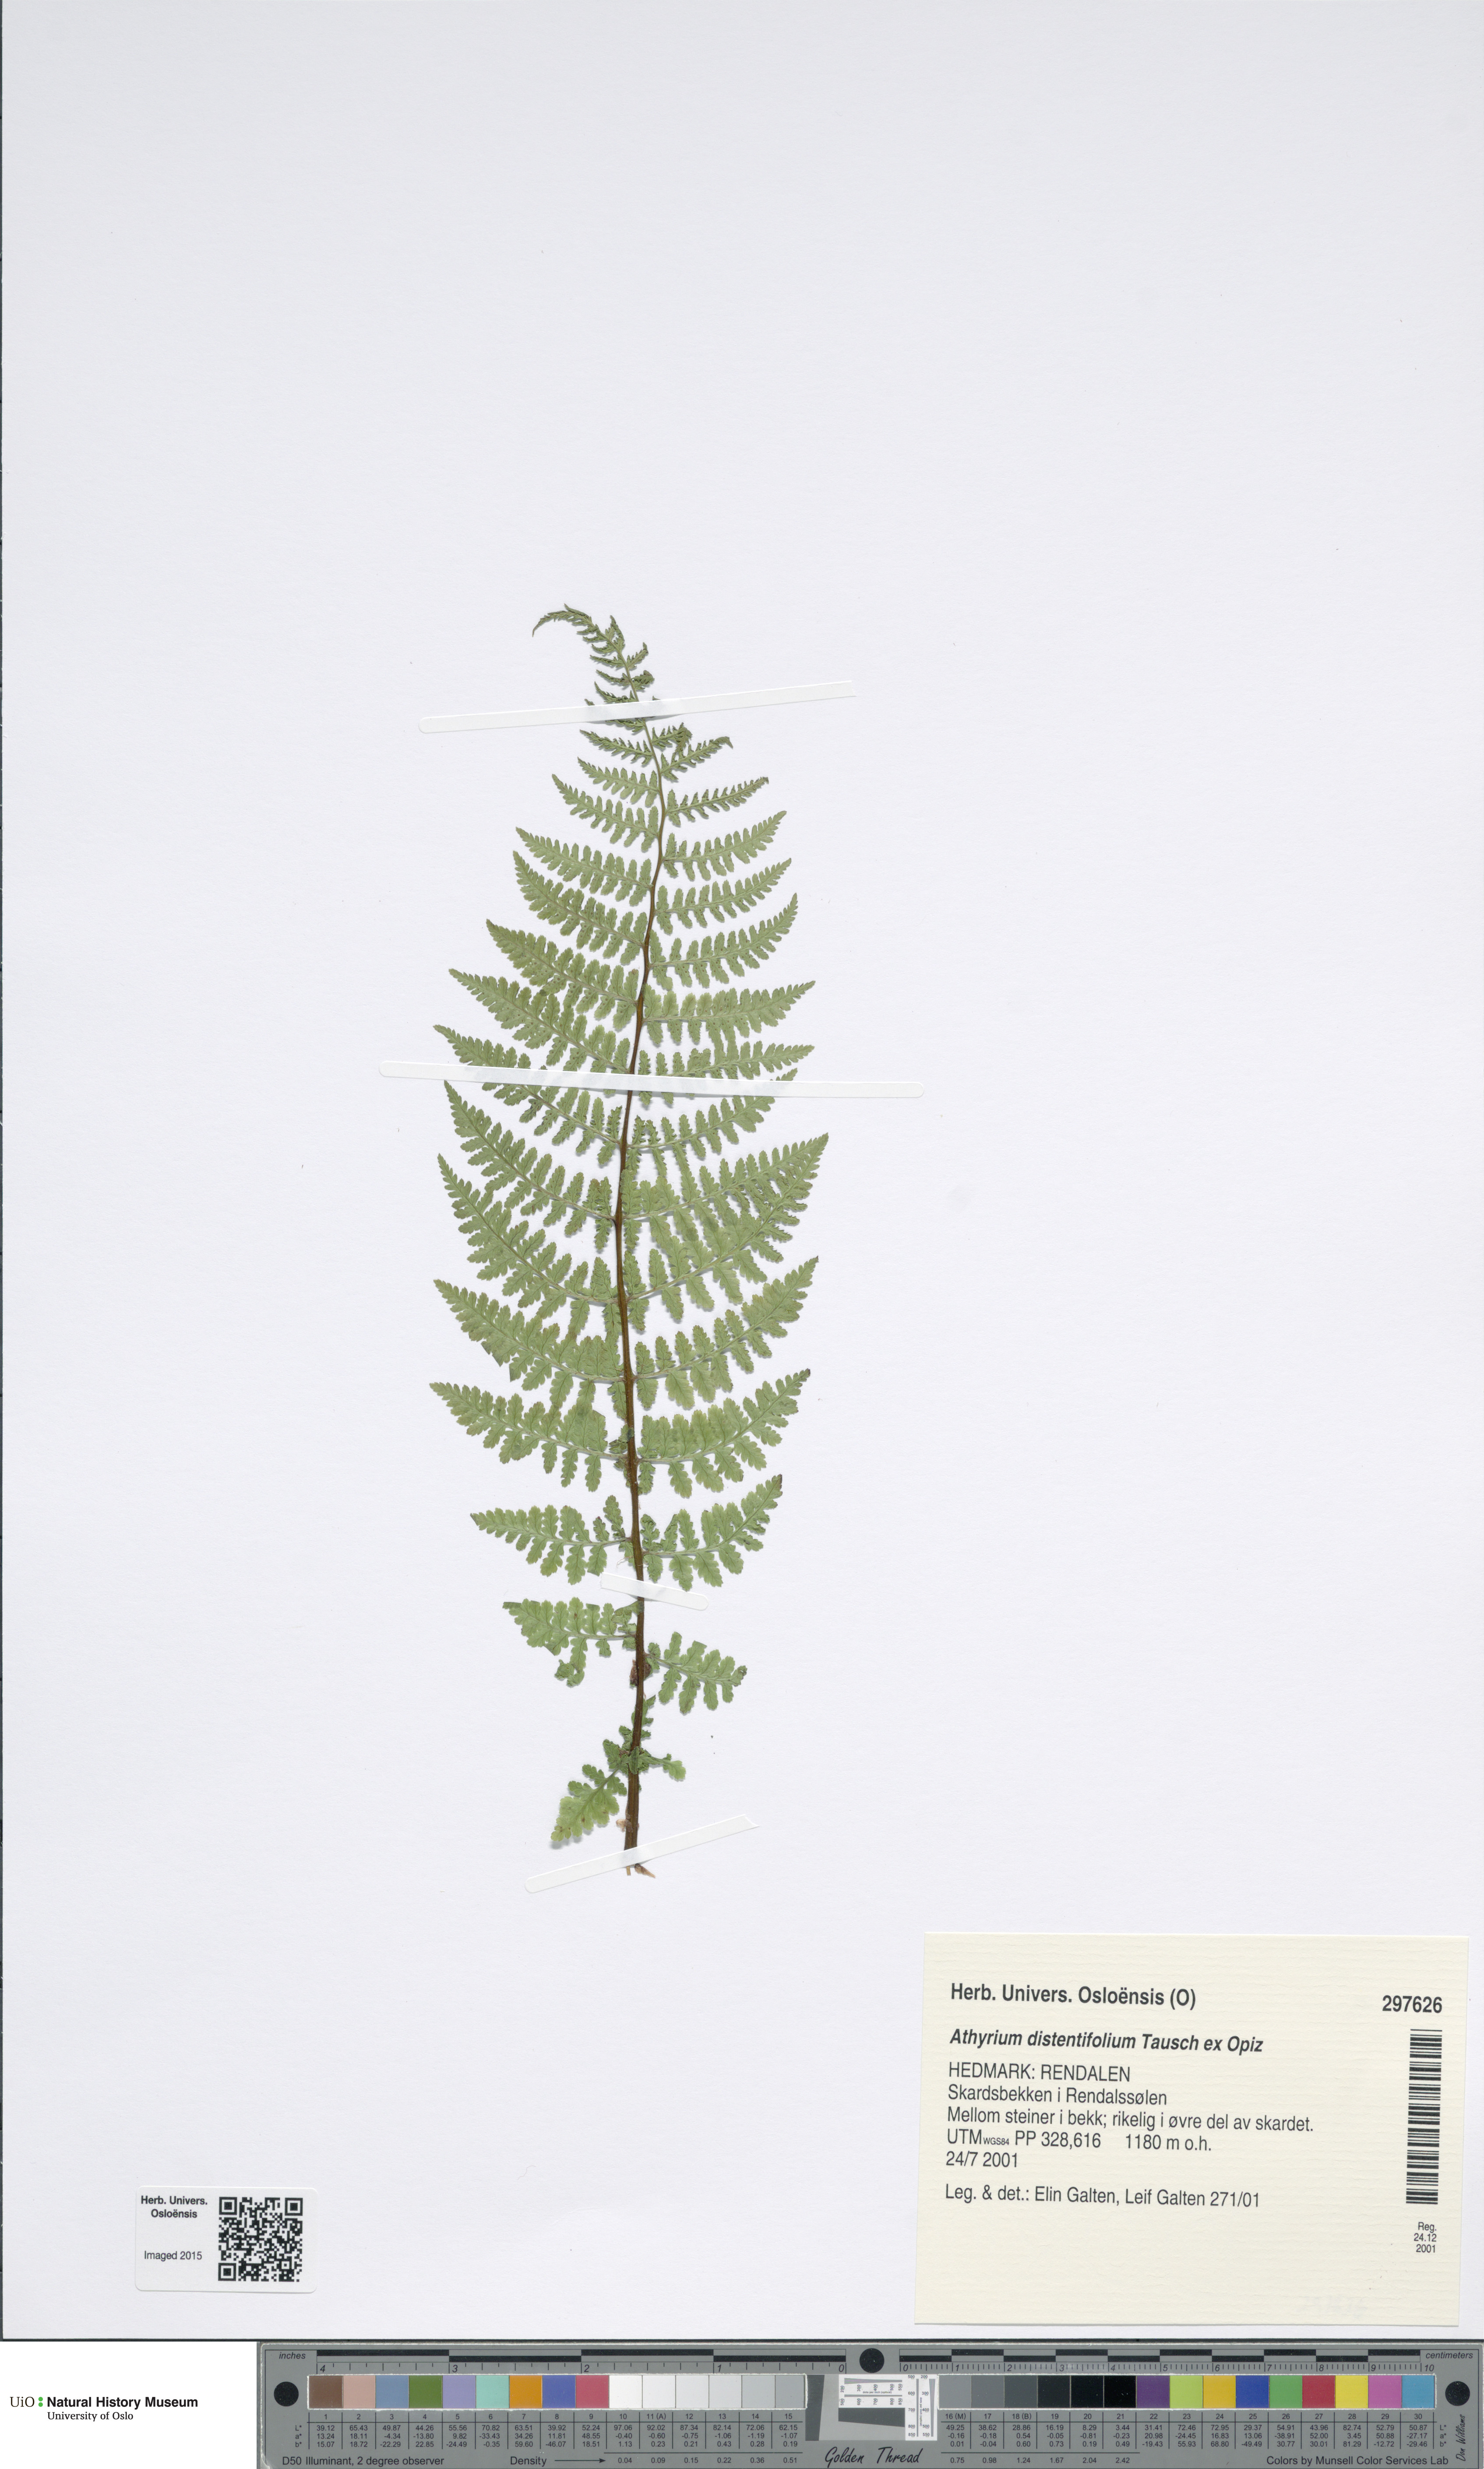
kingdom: Plantae
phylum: Tracheophyta
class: Polypodiopsida
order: Polypodiales
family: Athyriaceae
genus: Pseudathyrium
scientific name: Pseudathyrium alpestre
